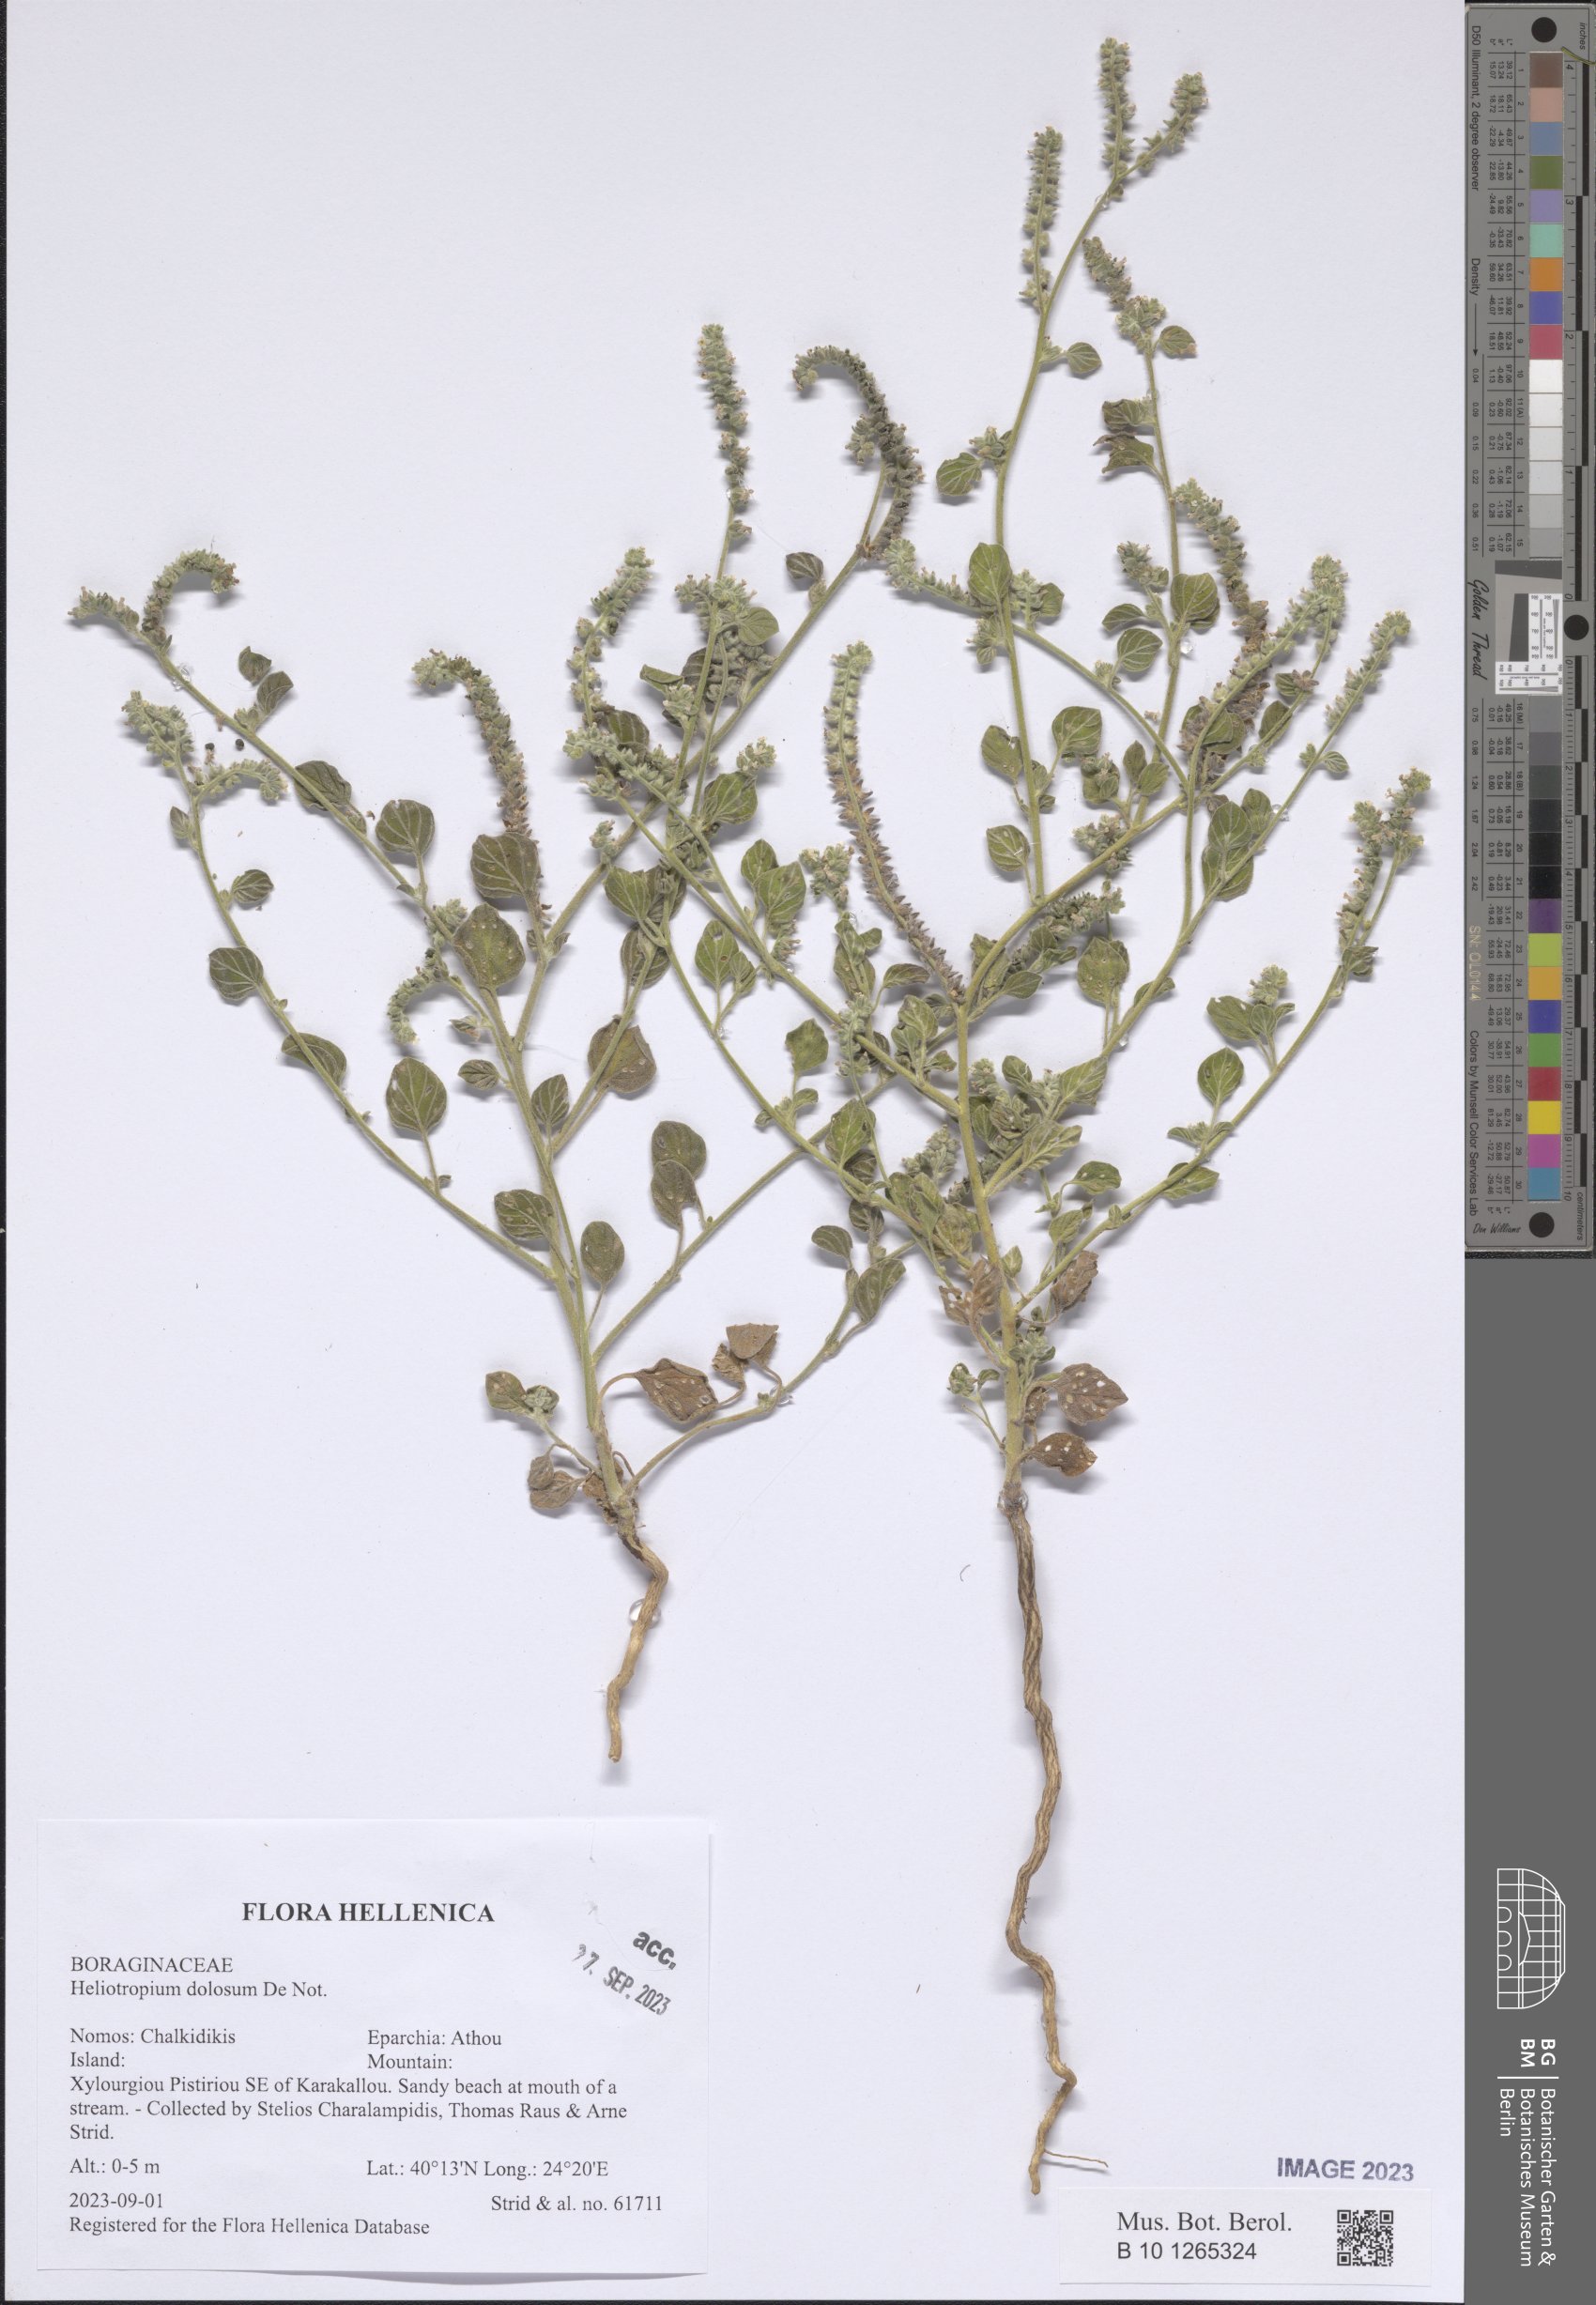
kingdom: Plantae
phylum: Tracheophyta
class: Magnoliopsida
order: Boraginales
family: Heliotropiaceae
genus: Heliotropium
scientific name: Heliotropium dolosum
